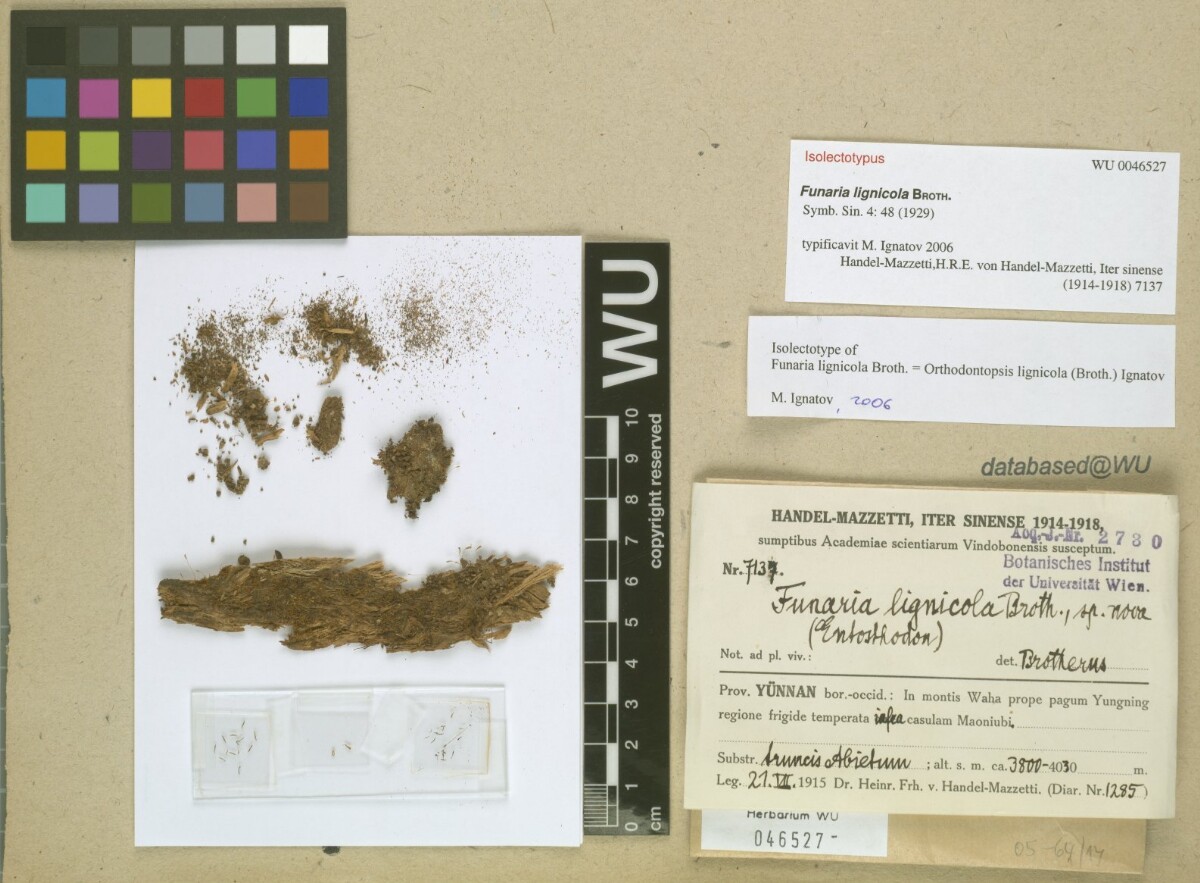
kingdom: Plantae
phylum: Bryophyta
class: Bryopsida
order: Orthodontiales
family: Orthodontiaceae
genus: Orthodontium
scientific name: Orthodontium lignicola
